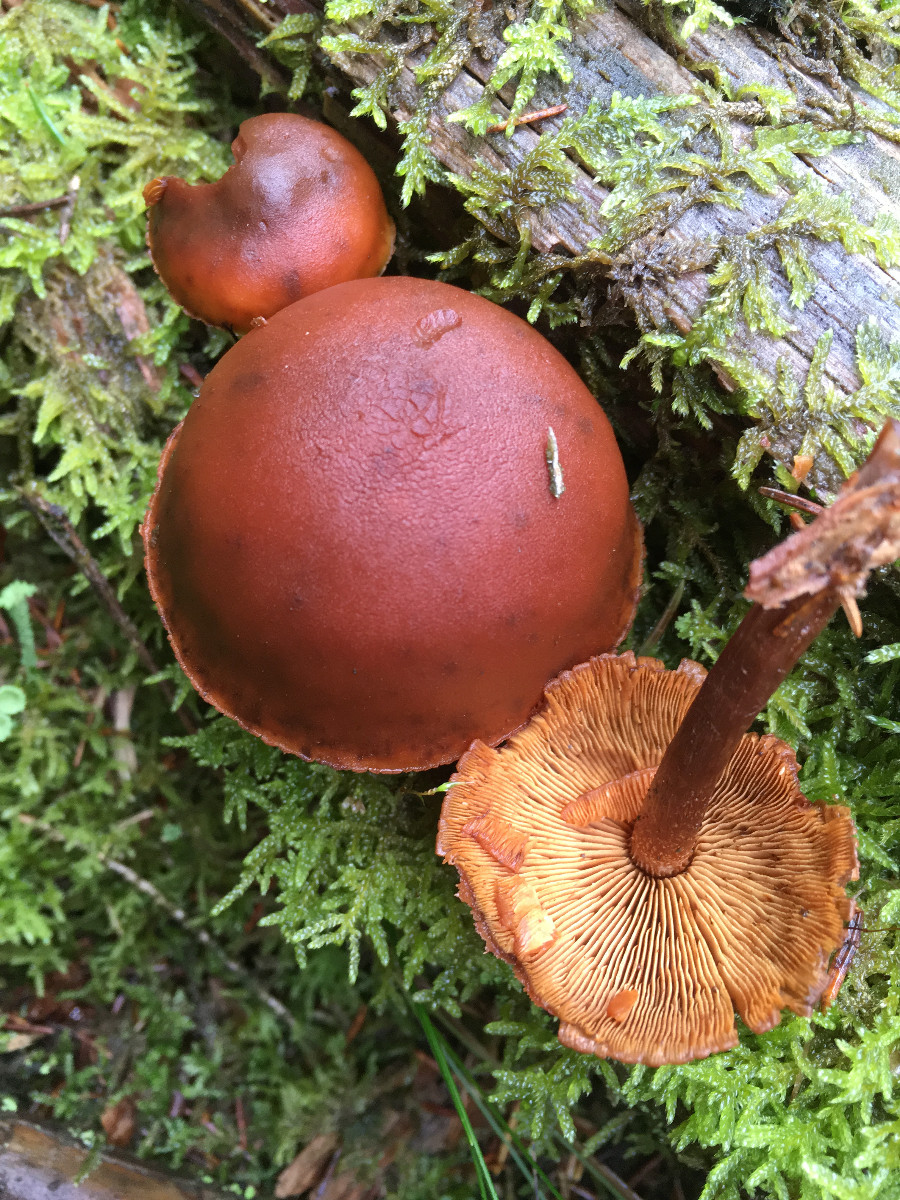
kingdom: Fungi
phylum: Basidiomycota
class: Agaricomycetes
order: Agaricales
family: Hymenogastraceae
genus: Gymnopilus
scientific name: Gymnopilus picreus
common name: puklet flammehat
